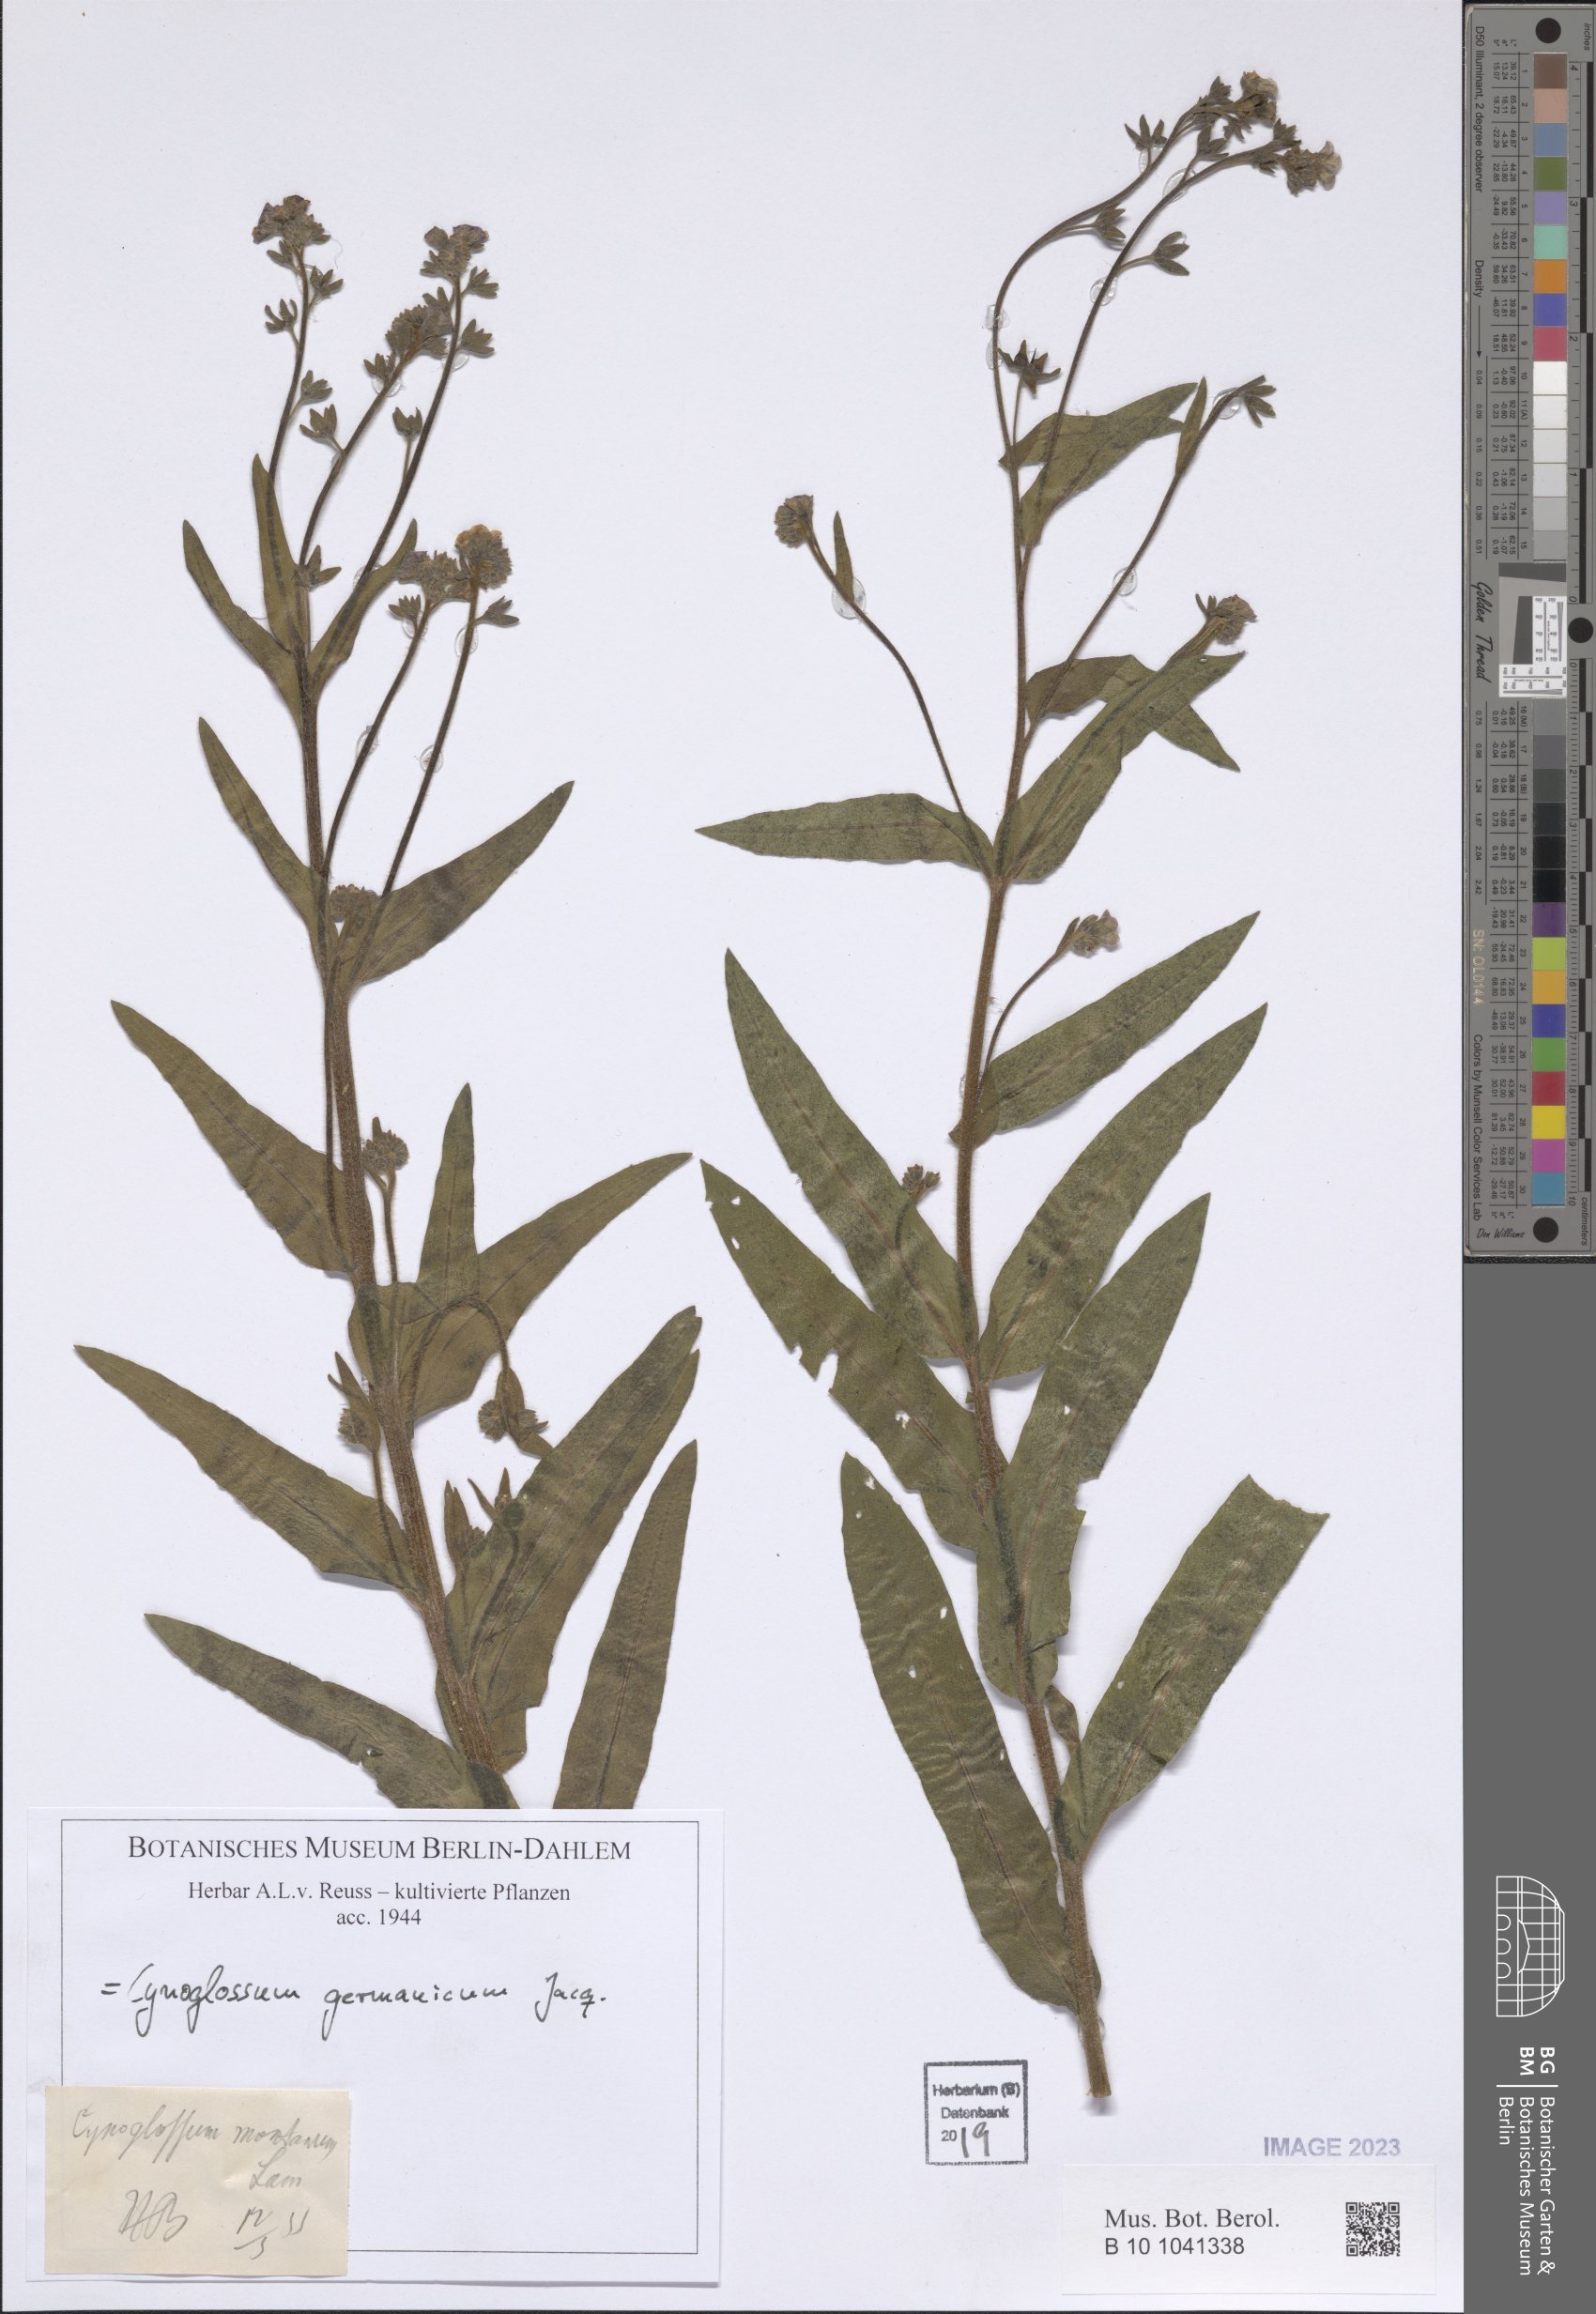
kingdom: Plantae
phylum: Tracheophyta
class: Magnoliopsida
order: Boraginales
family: Boraginaceae
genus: Cynoglossum
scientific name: Cynoglossum germanicum
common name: Green hound's-tongue
